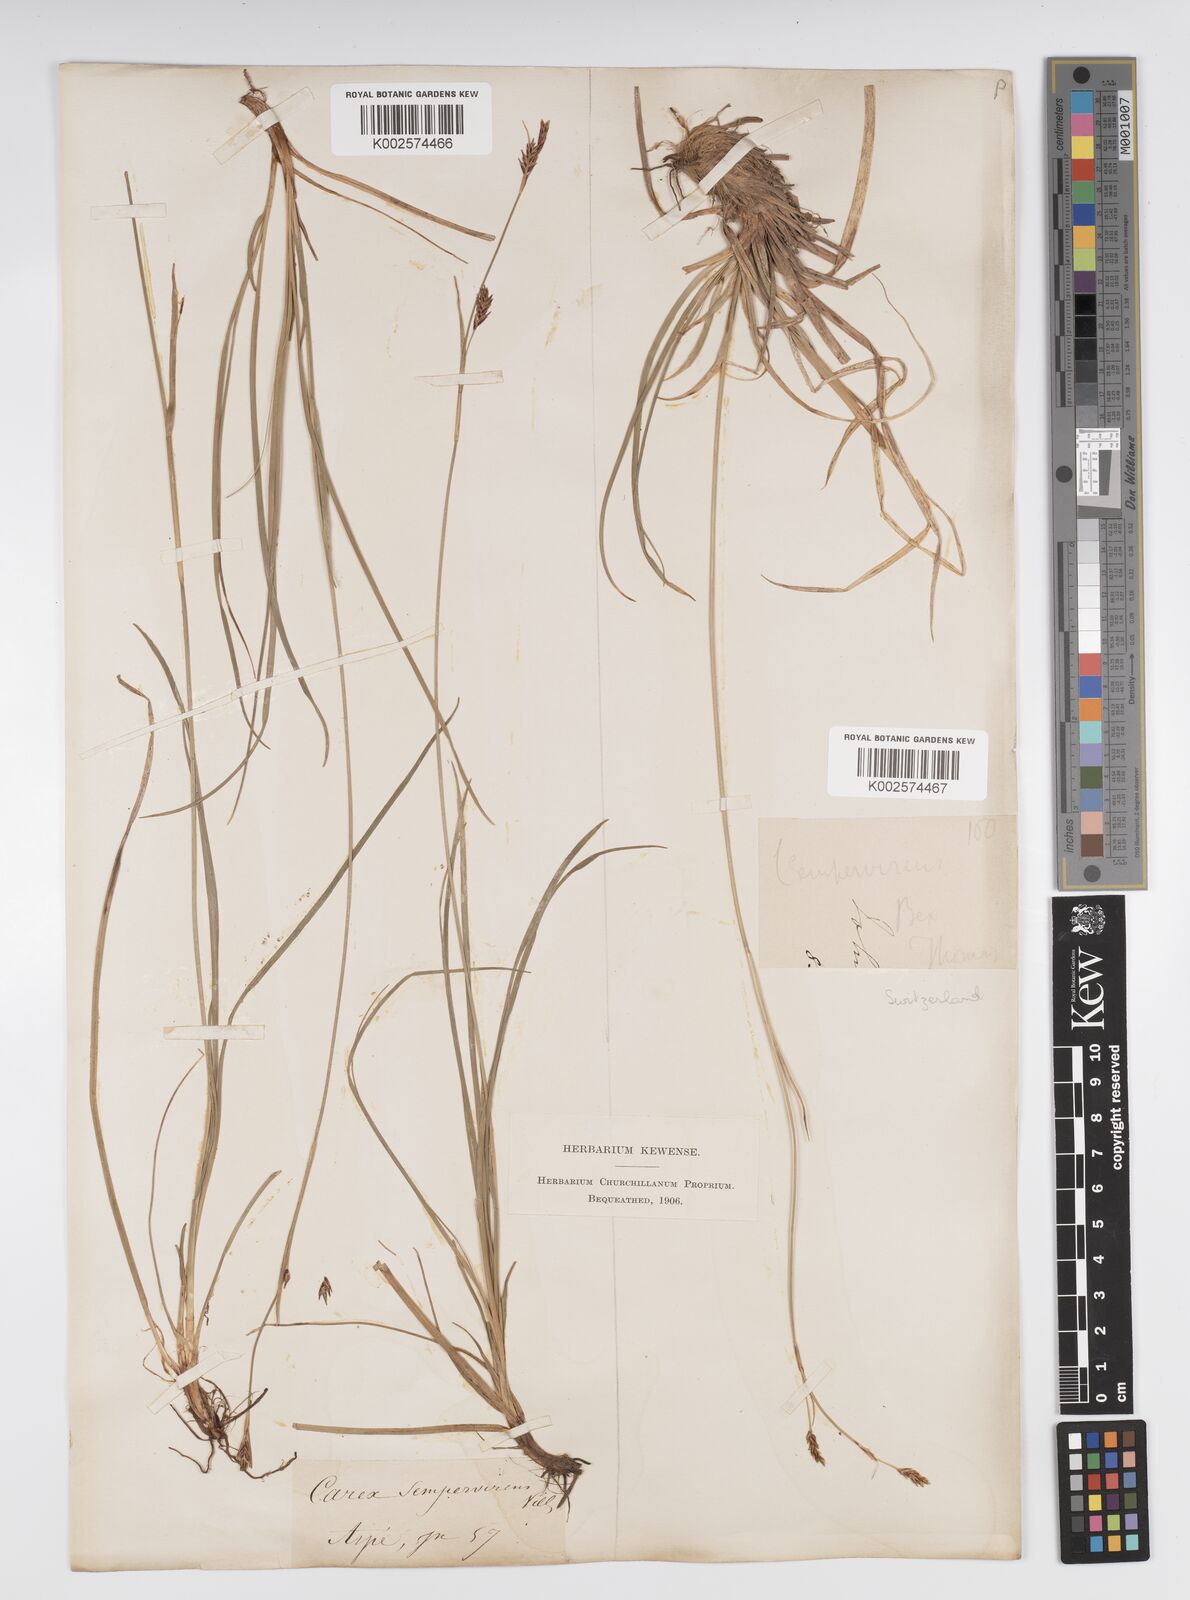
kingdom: Plantae
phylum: Tracheophyta
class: Liliopsida
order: Poales
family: Cyperaceae
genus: Carex
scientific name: Carex sempervirens
